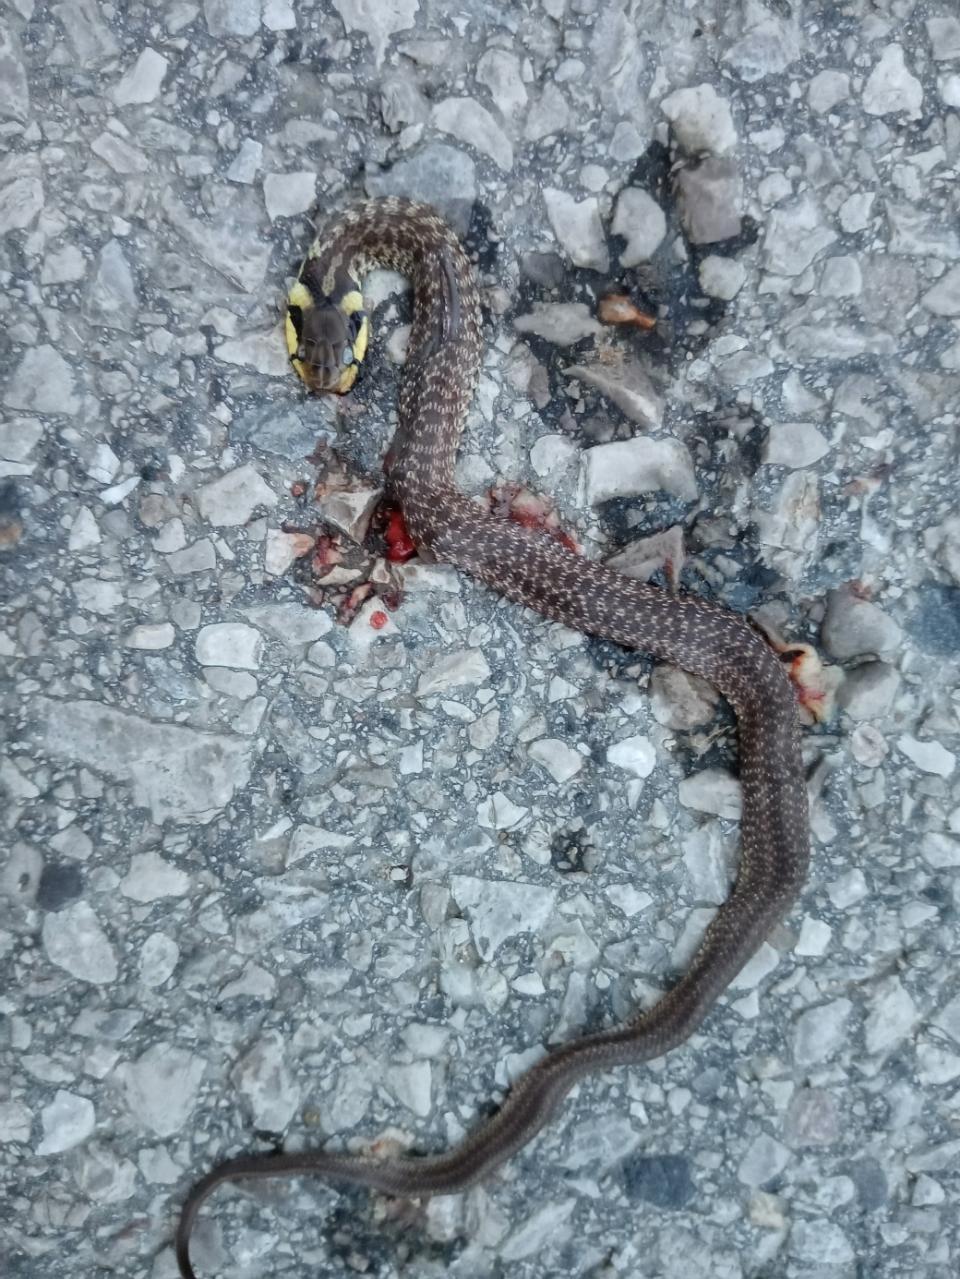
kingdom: Animalia
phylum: Chordata
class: Squamata
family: Colubridae
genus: Zamenis
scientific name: Zamenis longissimus
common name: Aesculapean snake
